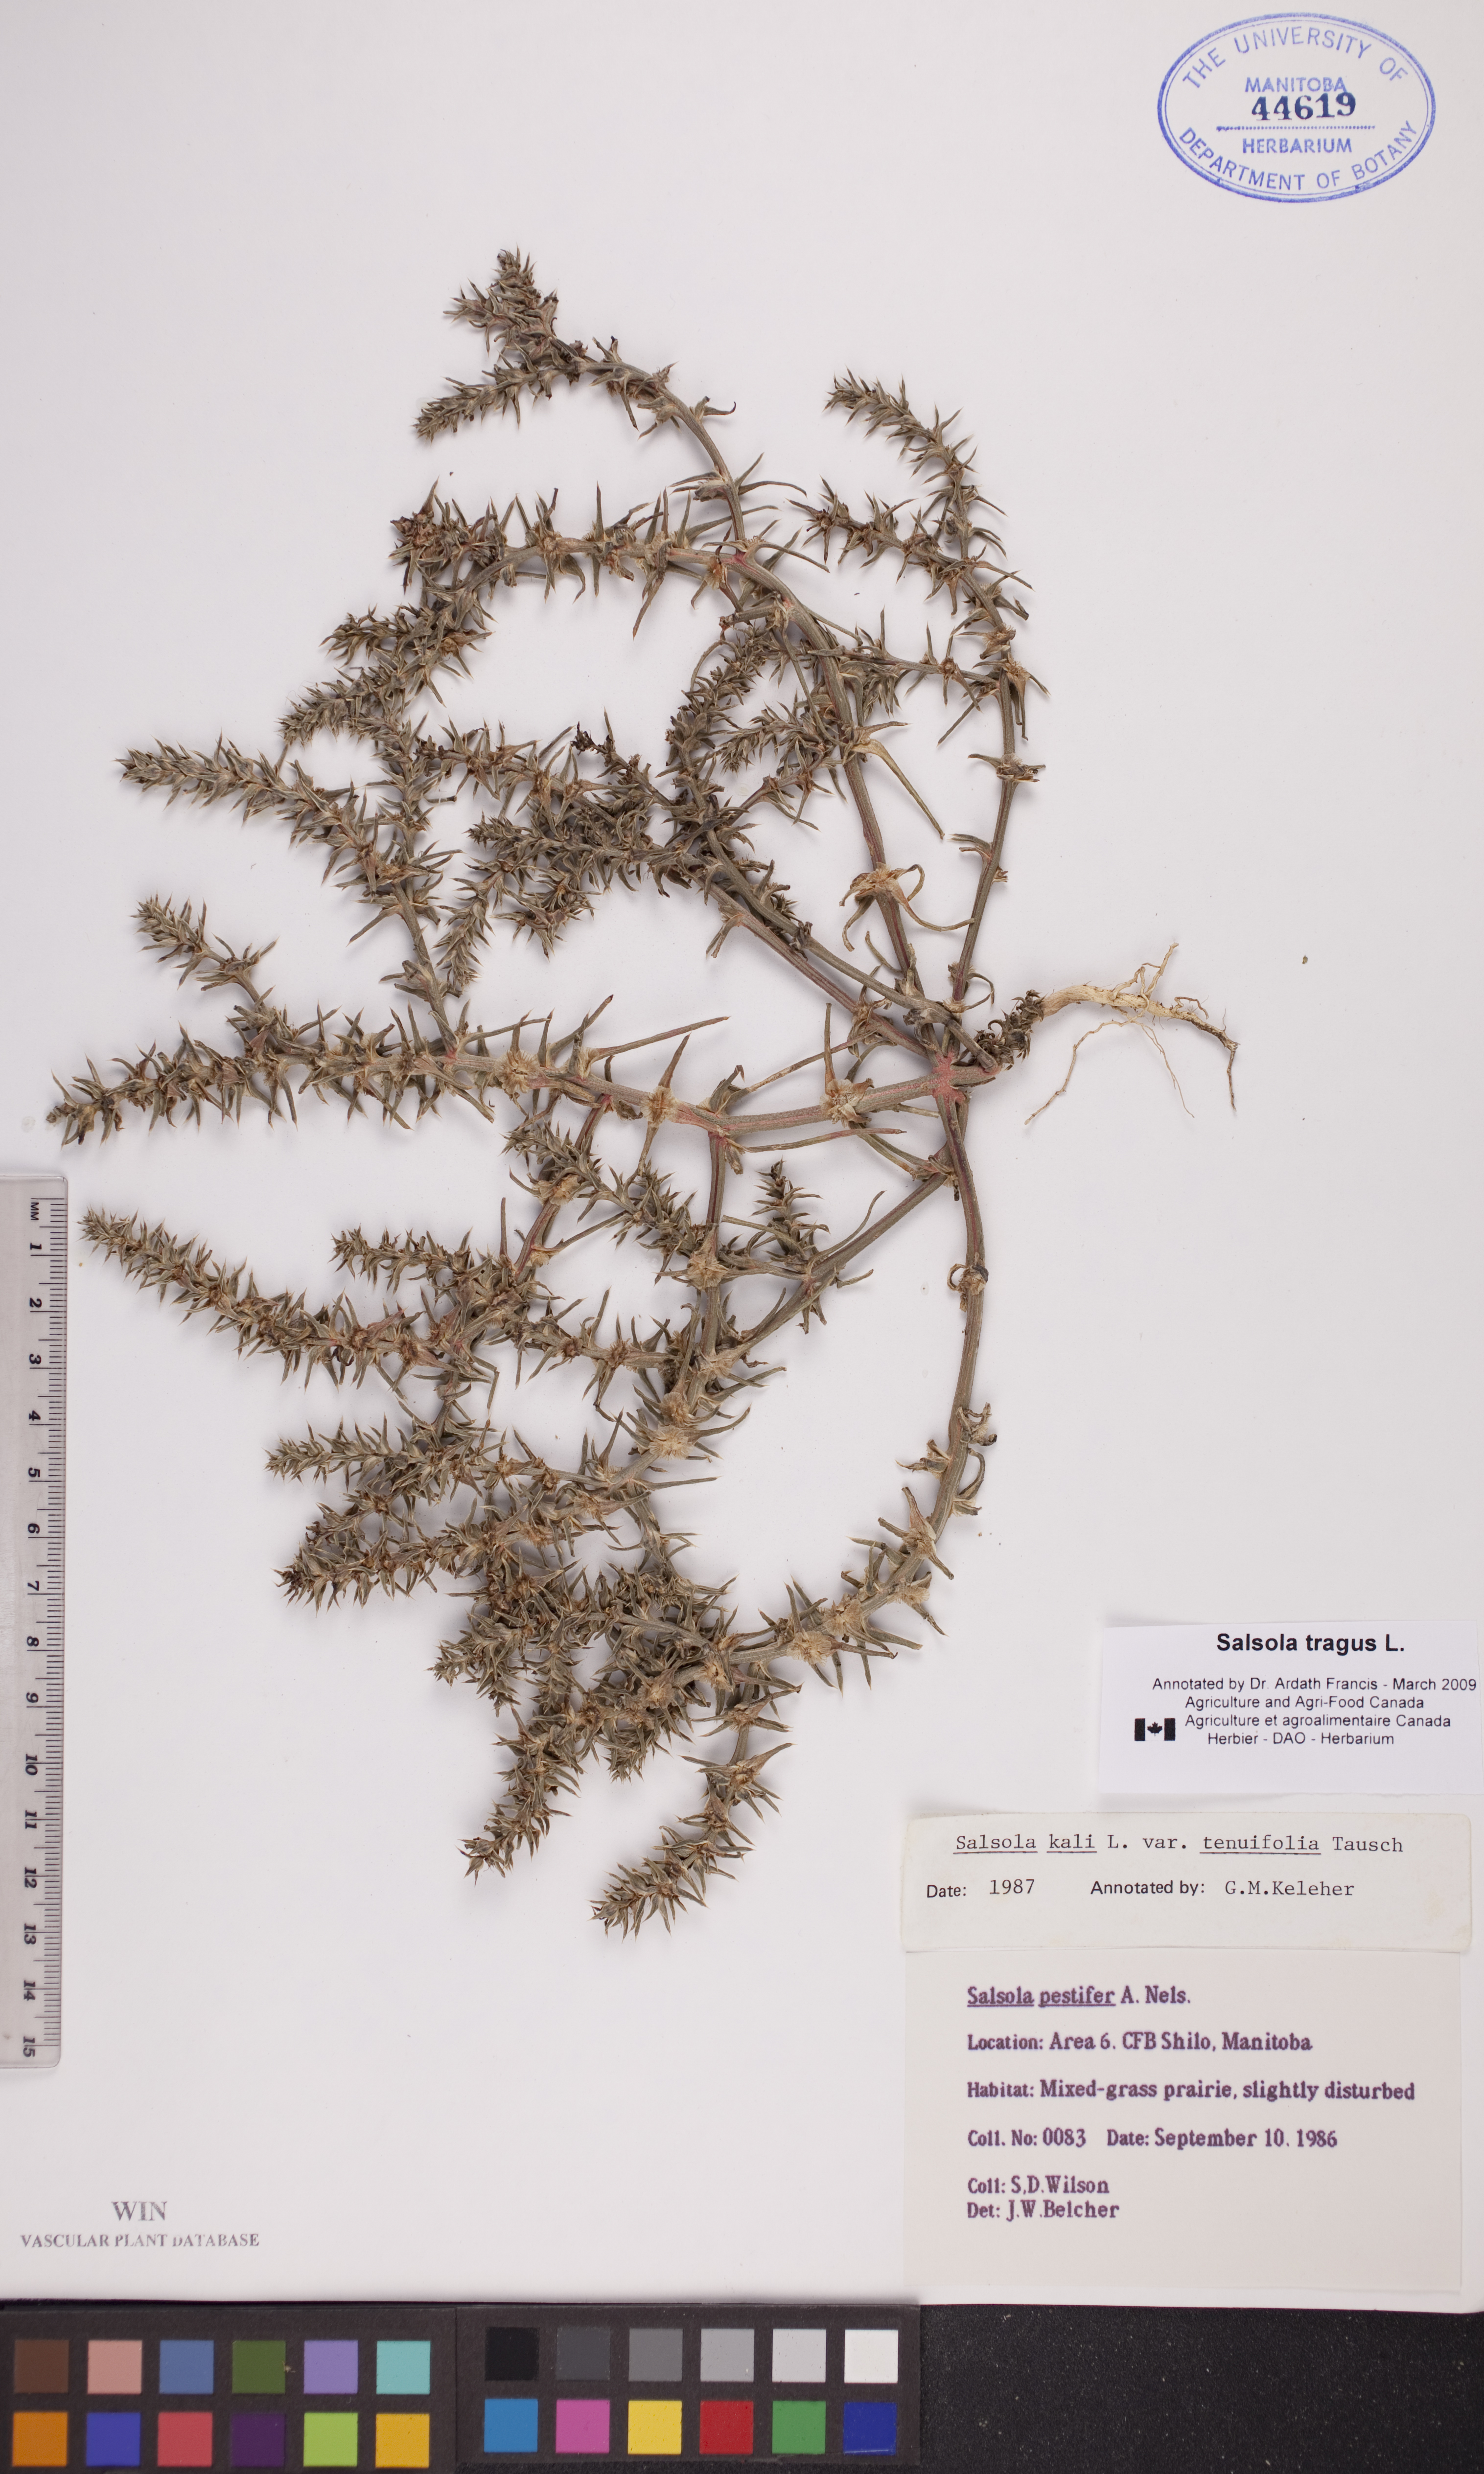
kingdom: Plantae
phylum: Tracheophyta
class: Magnoliopsida
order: Caryophyllales
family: Amaranthaceae
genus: Salsola
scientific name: Salsola tragus
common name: Prickly russian thistle
